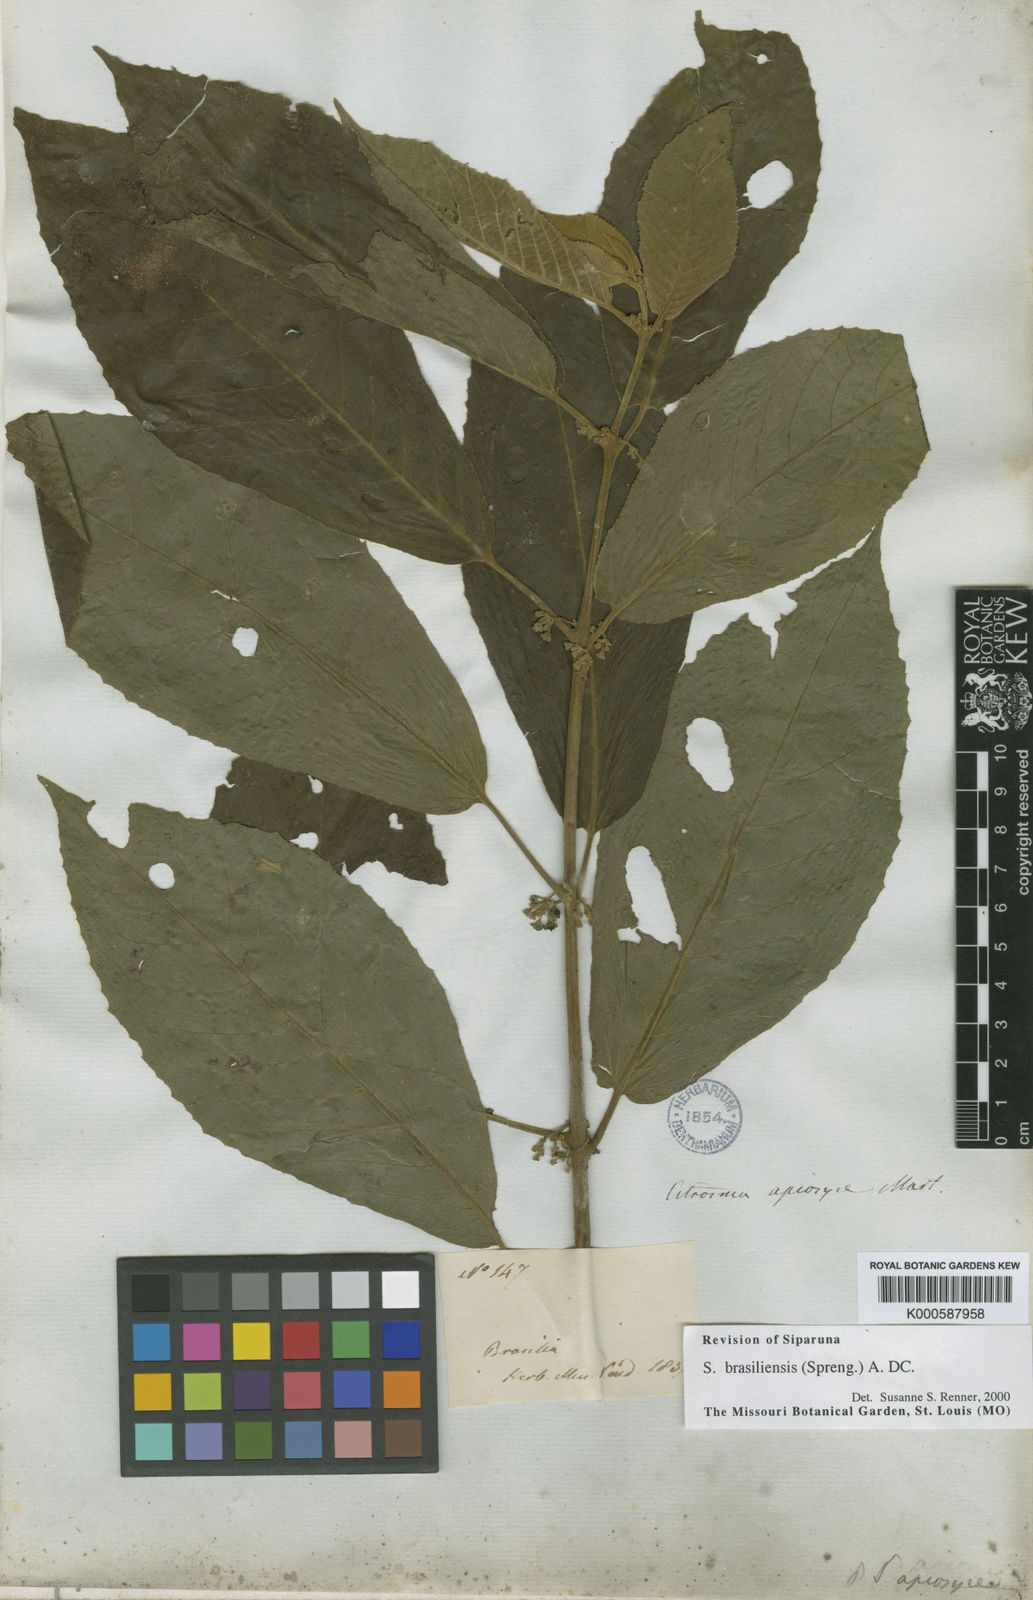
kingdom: Plantae
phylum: Tracheophyta
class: Magnoliopsida
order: Laurales
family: Siparunaceae
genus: Siparuna
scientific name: Siparuna brasiliensis
